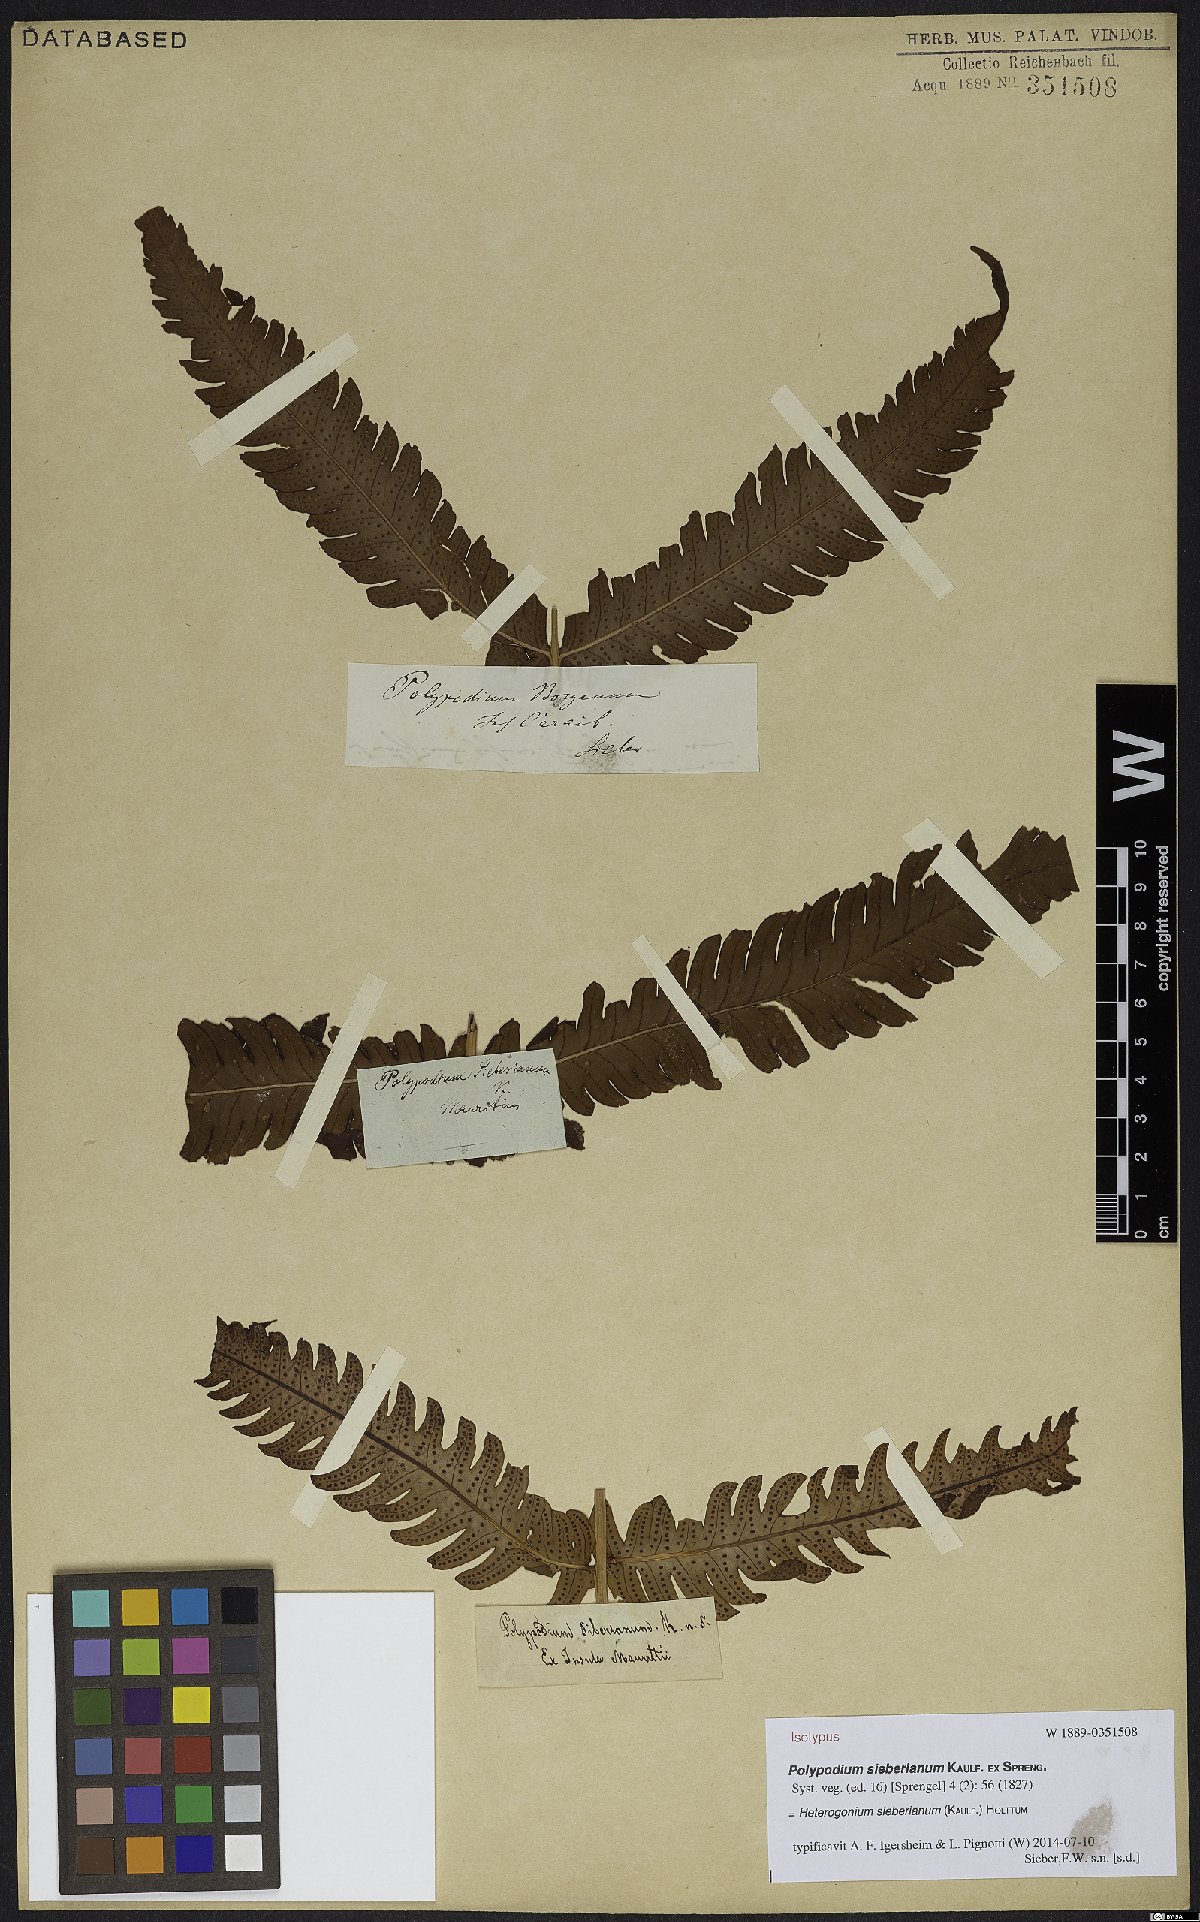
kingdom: Plantae
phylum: Tracheophyta
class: Polypodiopsida
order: Polypodiales
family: Dryopteridaceae
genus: Ctenitis
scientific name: Ctenitis sieberiana
